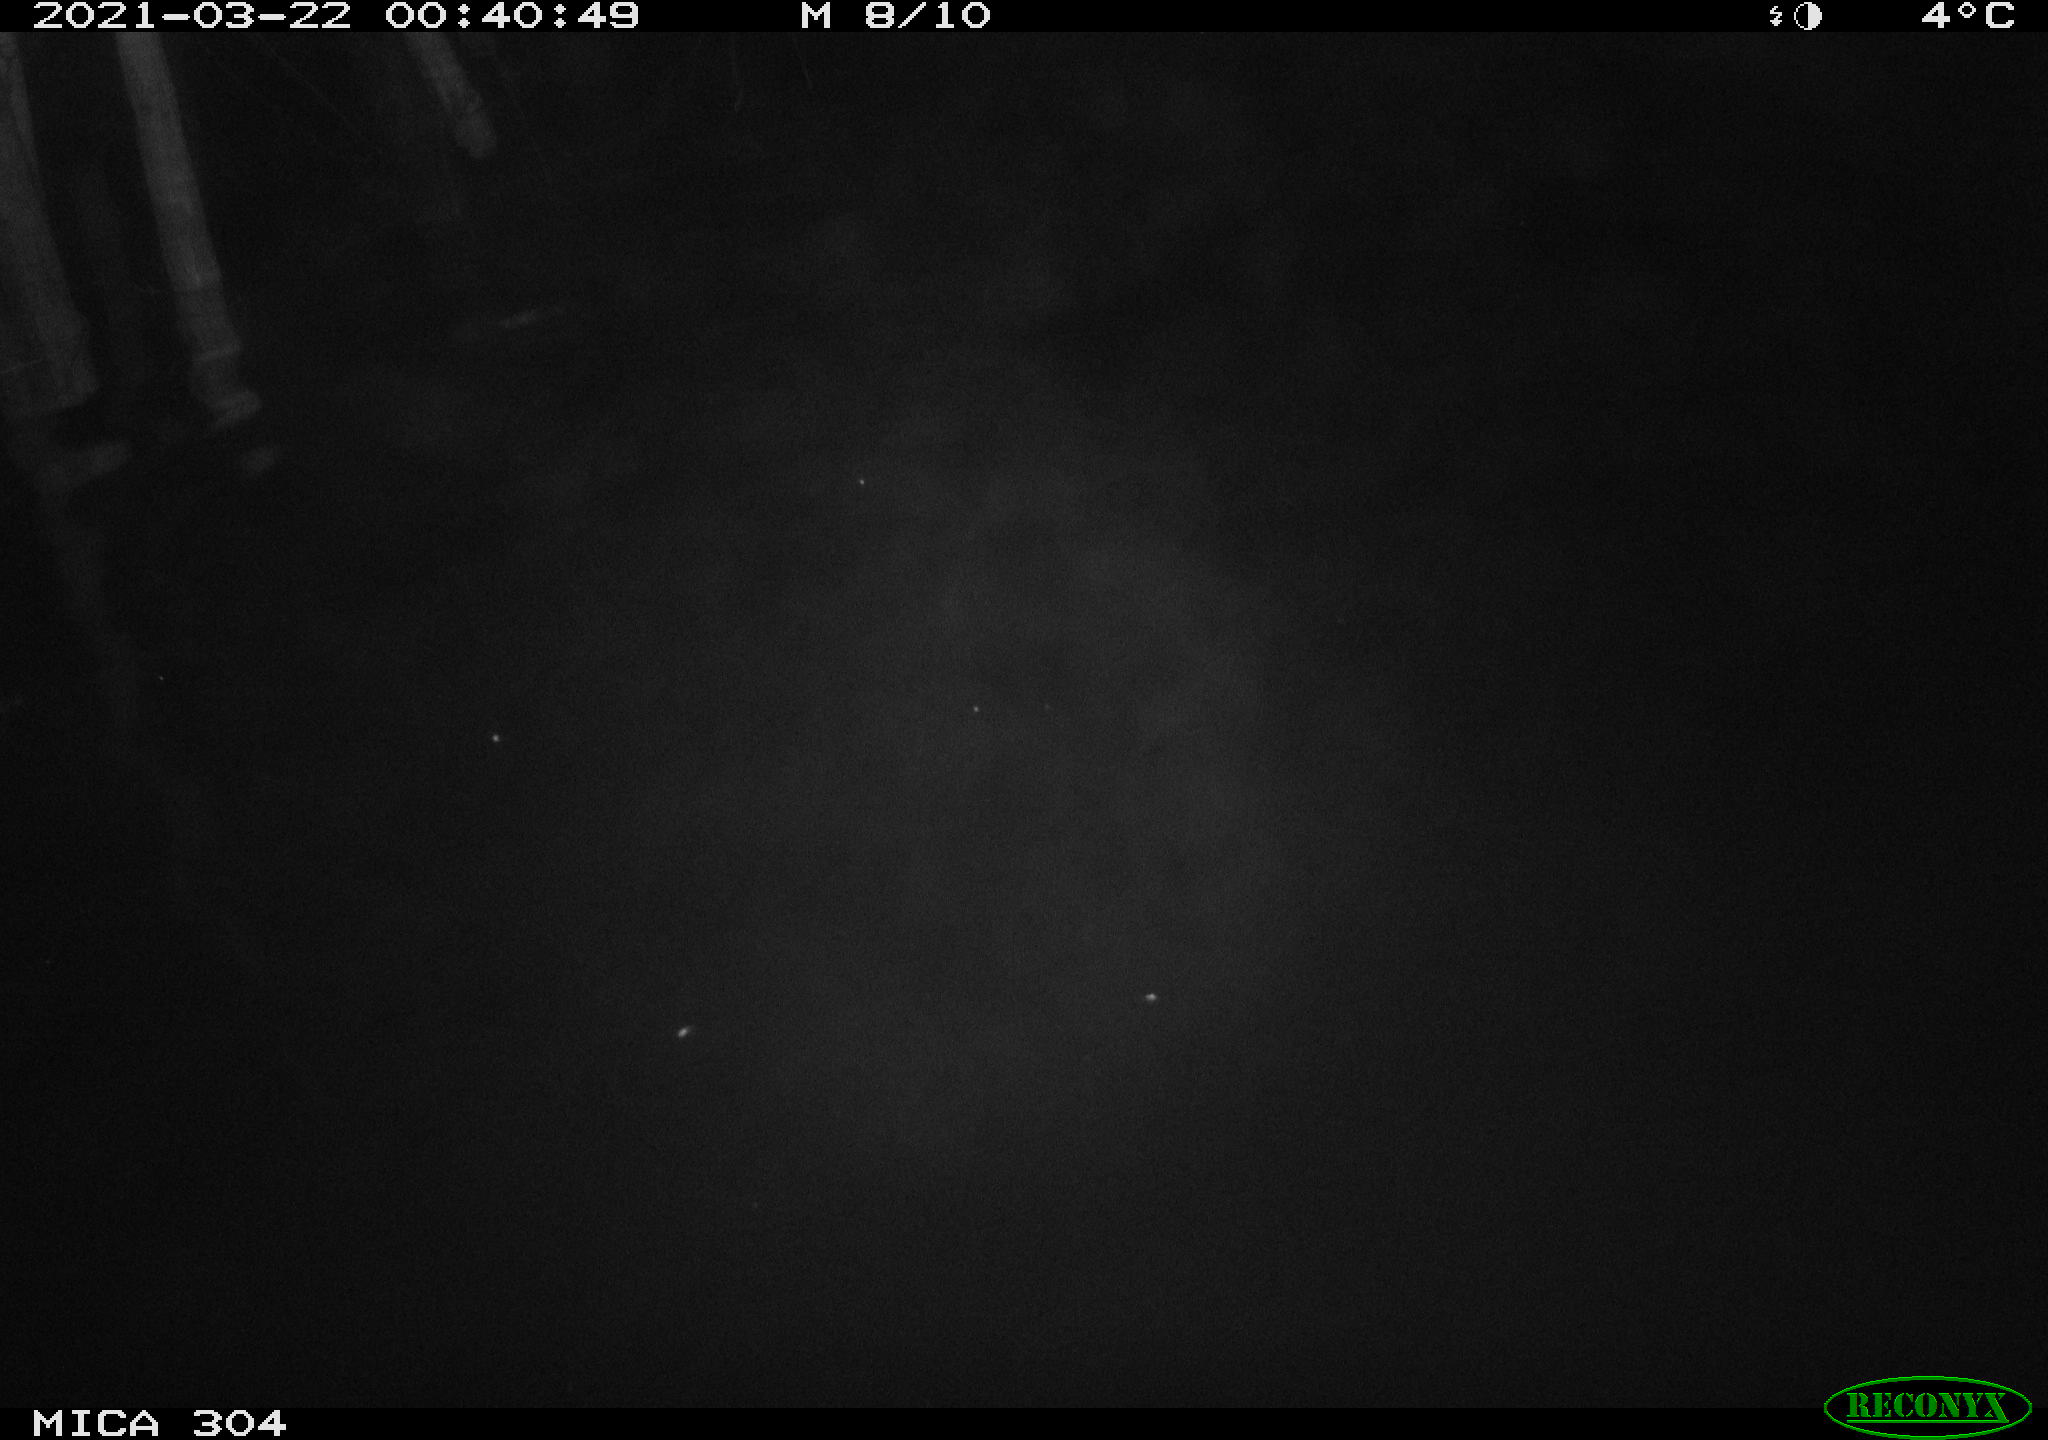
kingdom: Animalia
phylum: Chordata
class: Aves
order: Anseriformes
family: Anatidae
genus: Anas
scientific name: Anas platyrhynchos
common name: Mallard
